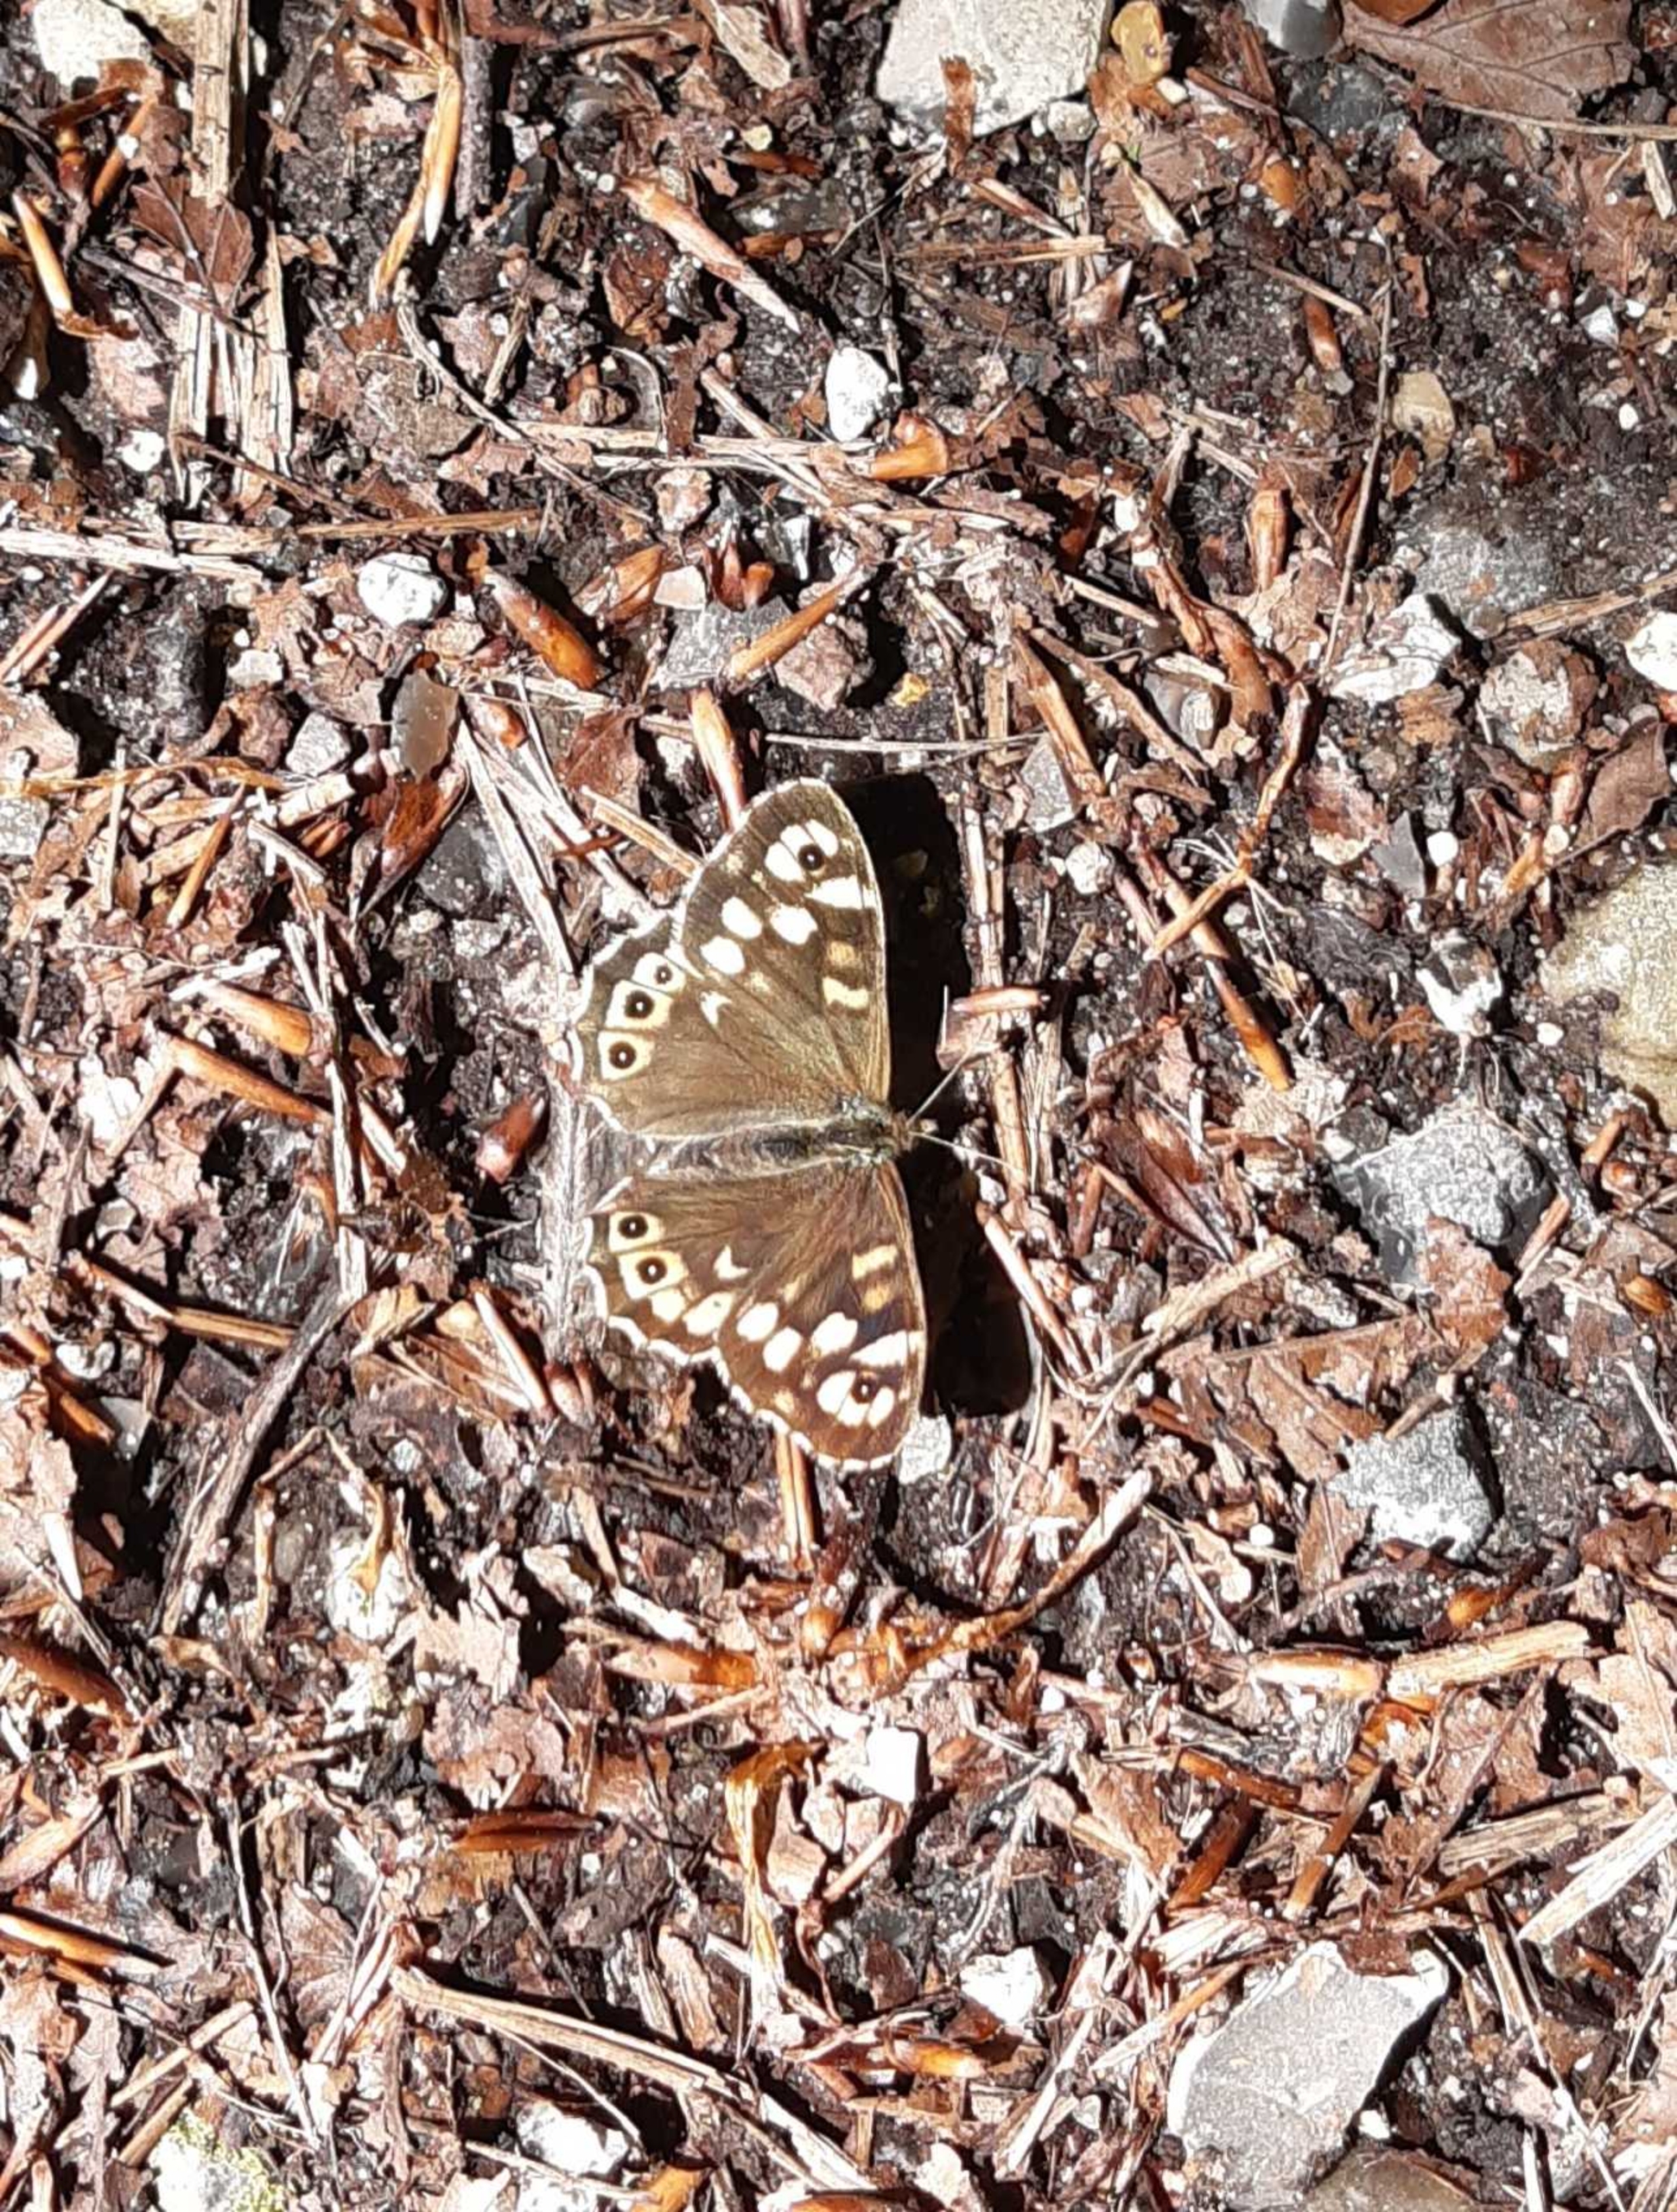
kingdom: Animalia
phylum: Arthropoda
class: Insecta
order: Lepidoptera
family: Nymphalidae
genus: Pararge
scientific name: Pararge aegeria
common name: Skovrandøje
